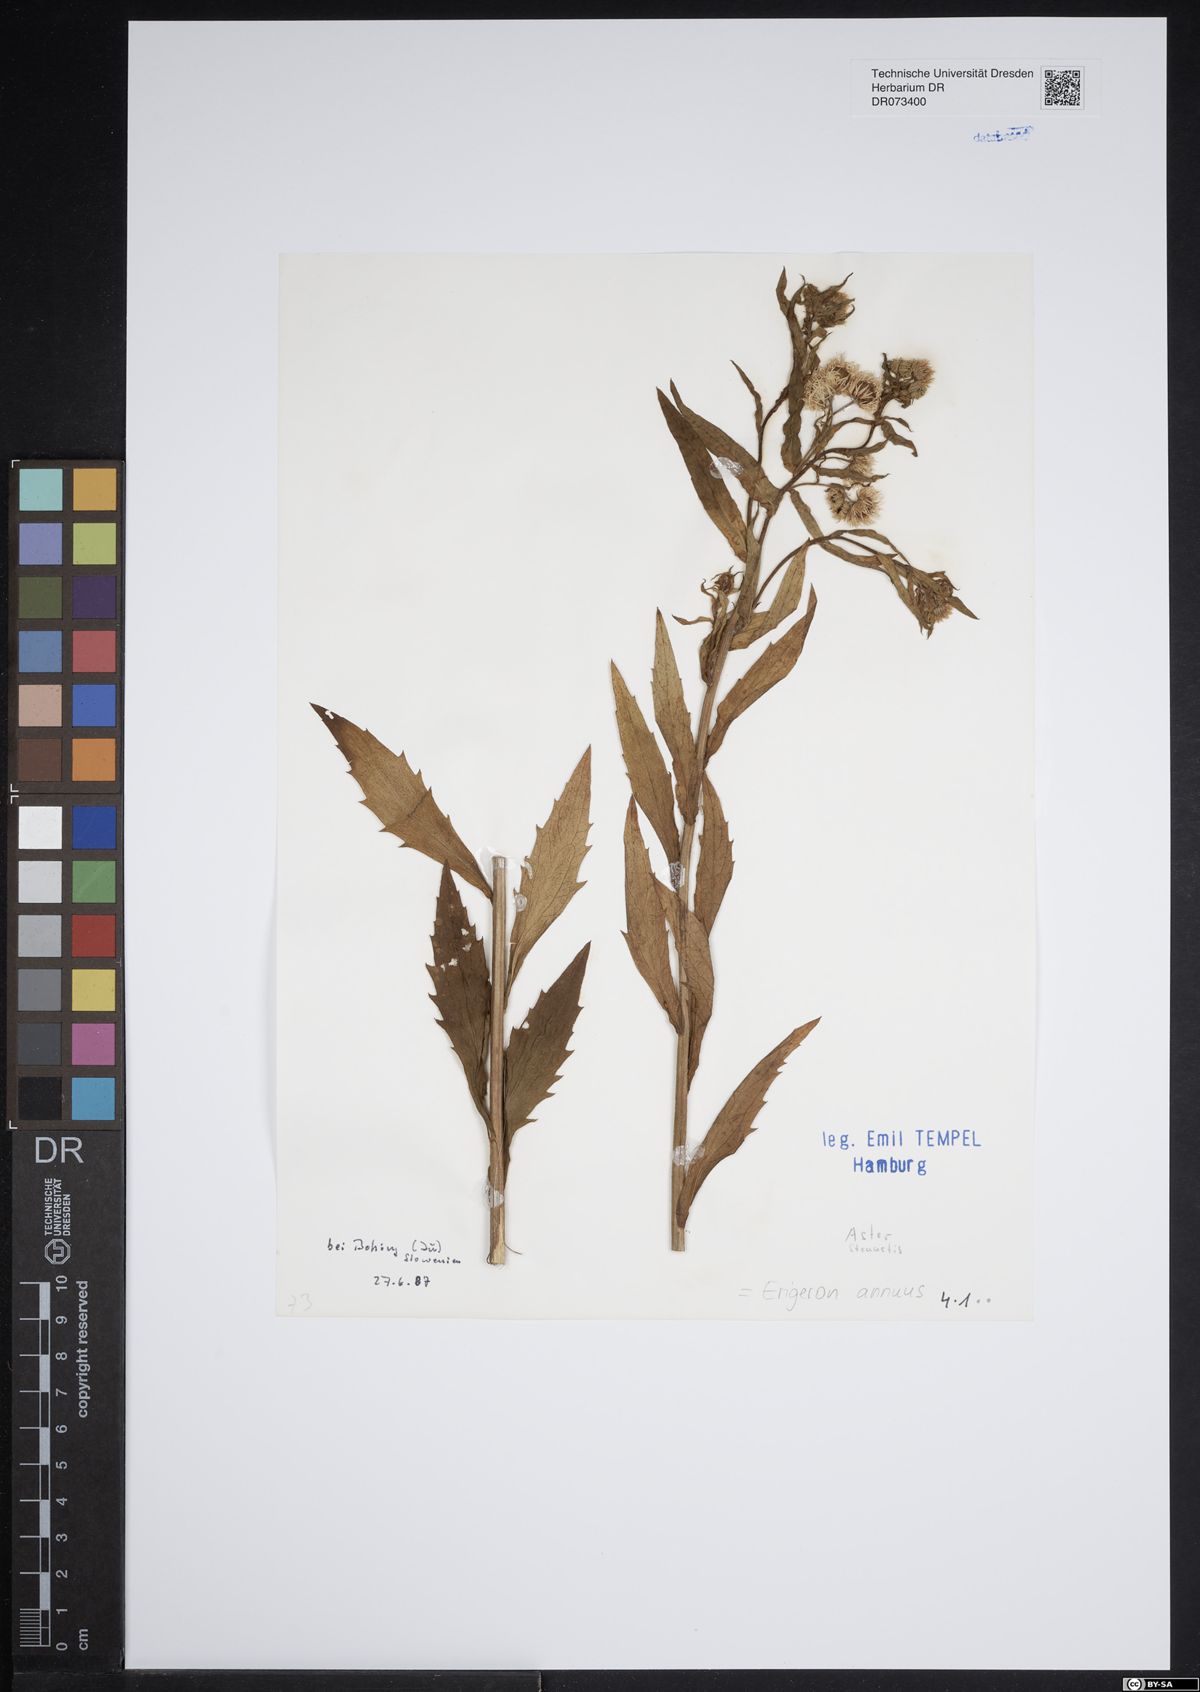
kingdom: Plantae
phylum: Tracheophyta
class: Magnoliopsida
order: Asterales
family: Asteraceae
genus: Erigeron
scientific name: Erigeron annuus
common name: Tall fleabane
